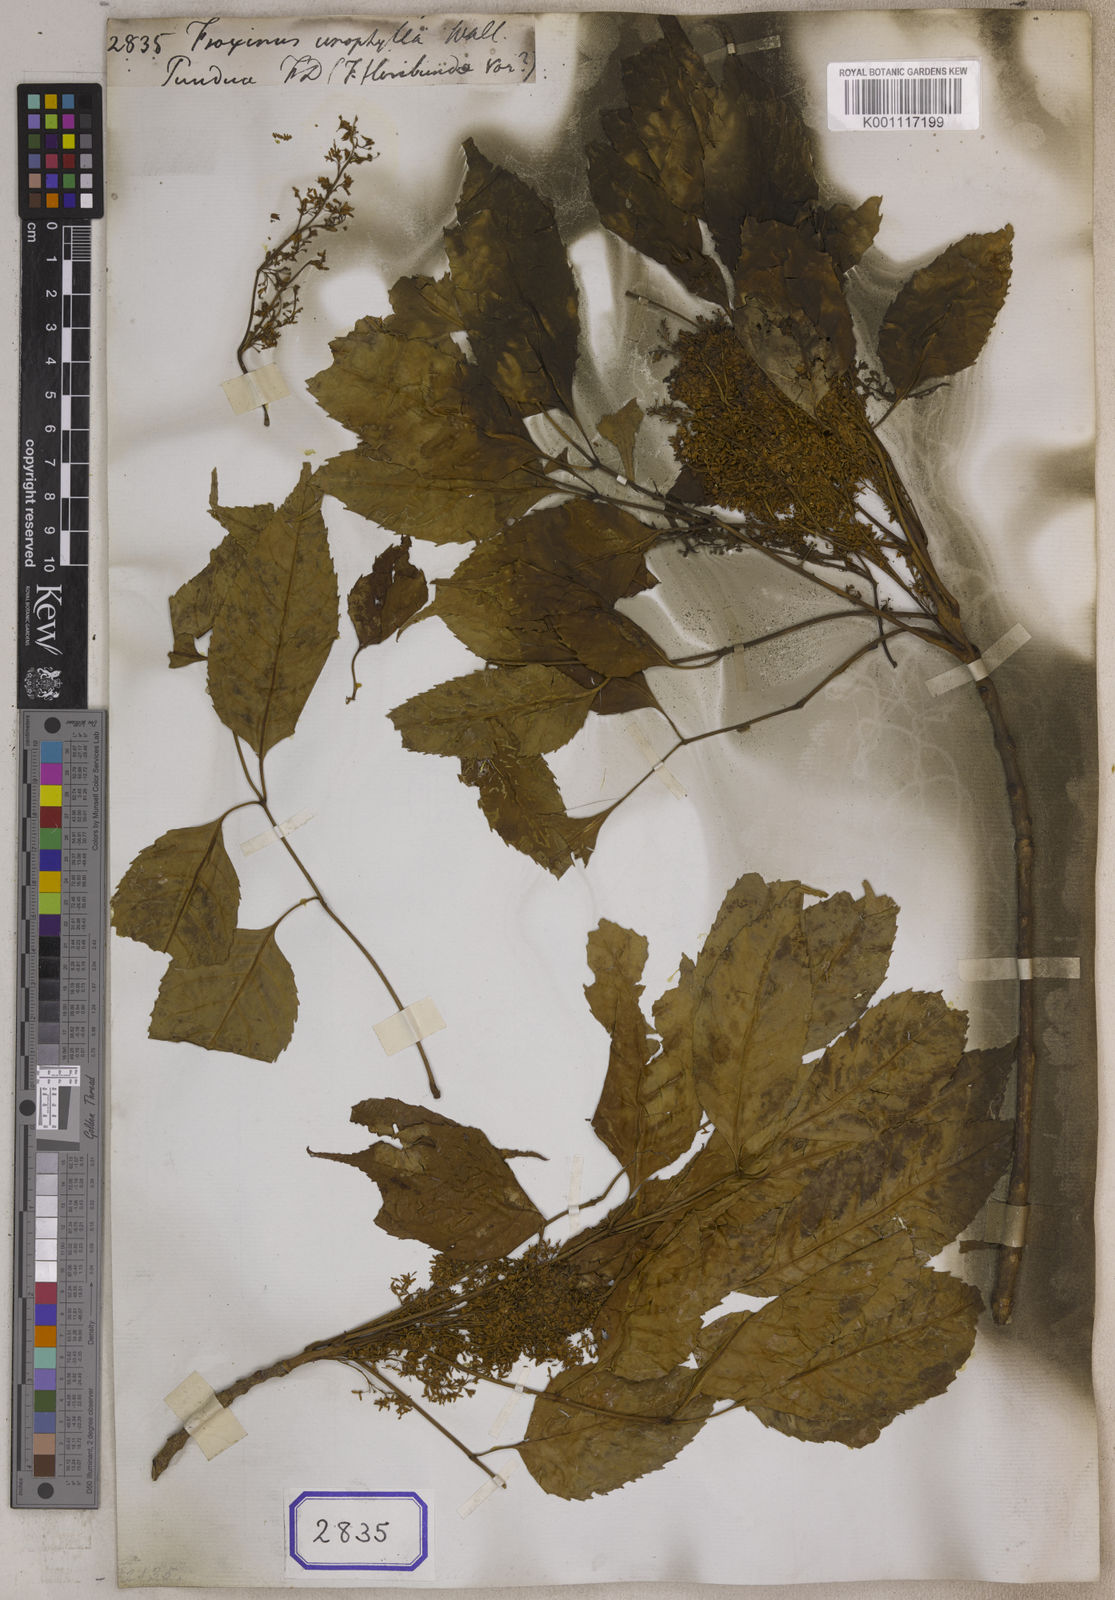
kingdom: Plantae
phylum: Tracheophyta
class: Magnoliopsida
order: Lamiales
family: Oleaceae
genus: Fraxinus
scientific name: Fraxinus
